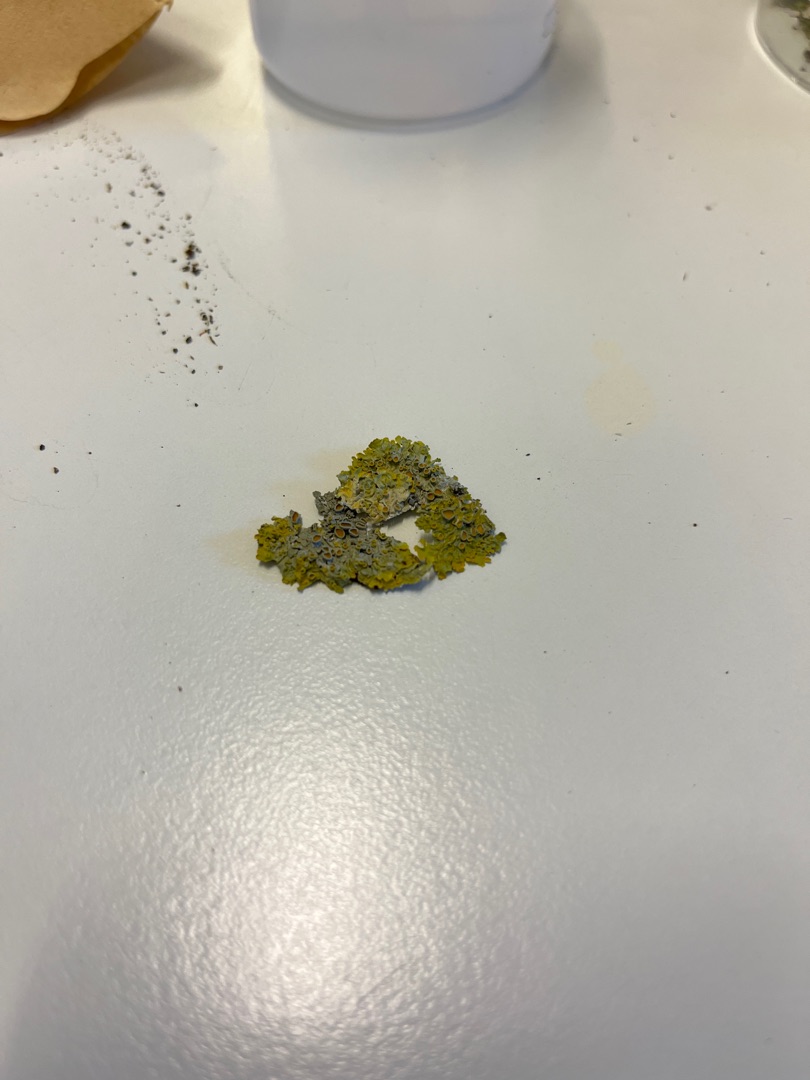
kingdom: Fungi
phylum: Ascomycota
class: Lecanoromycetes
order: Teloschistales
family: Teloschistaceae
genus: Xanthoria
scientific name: Xanthoria parietina
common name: Almindelig væggelav
